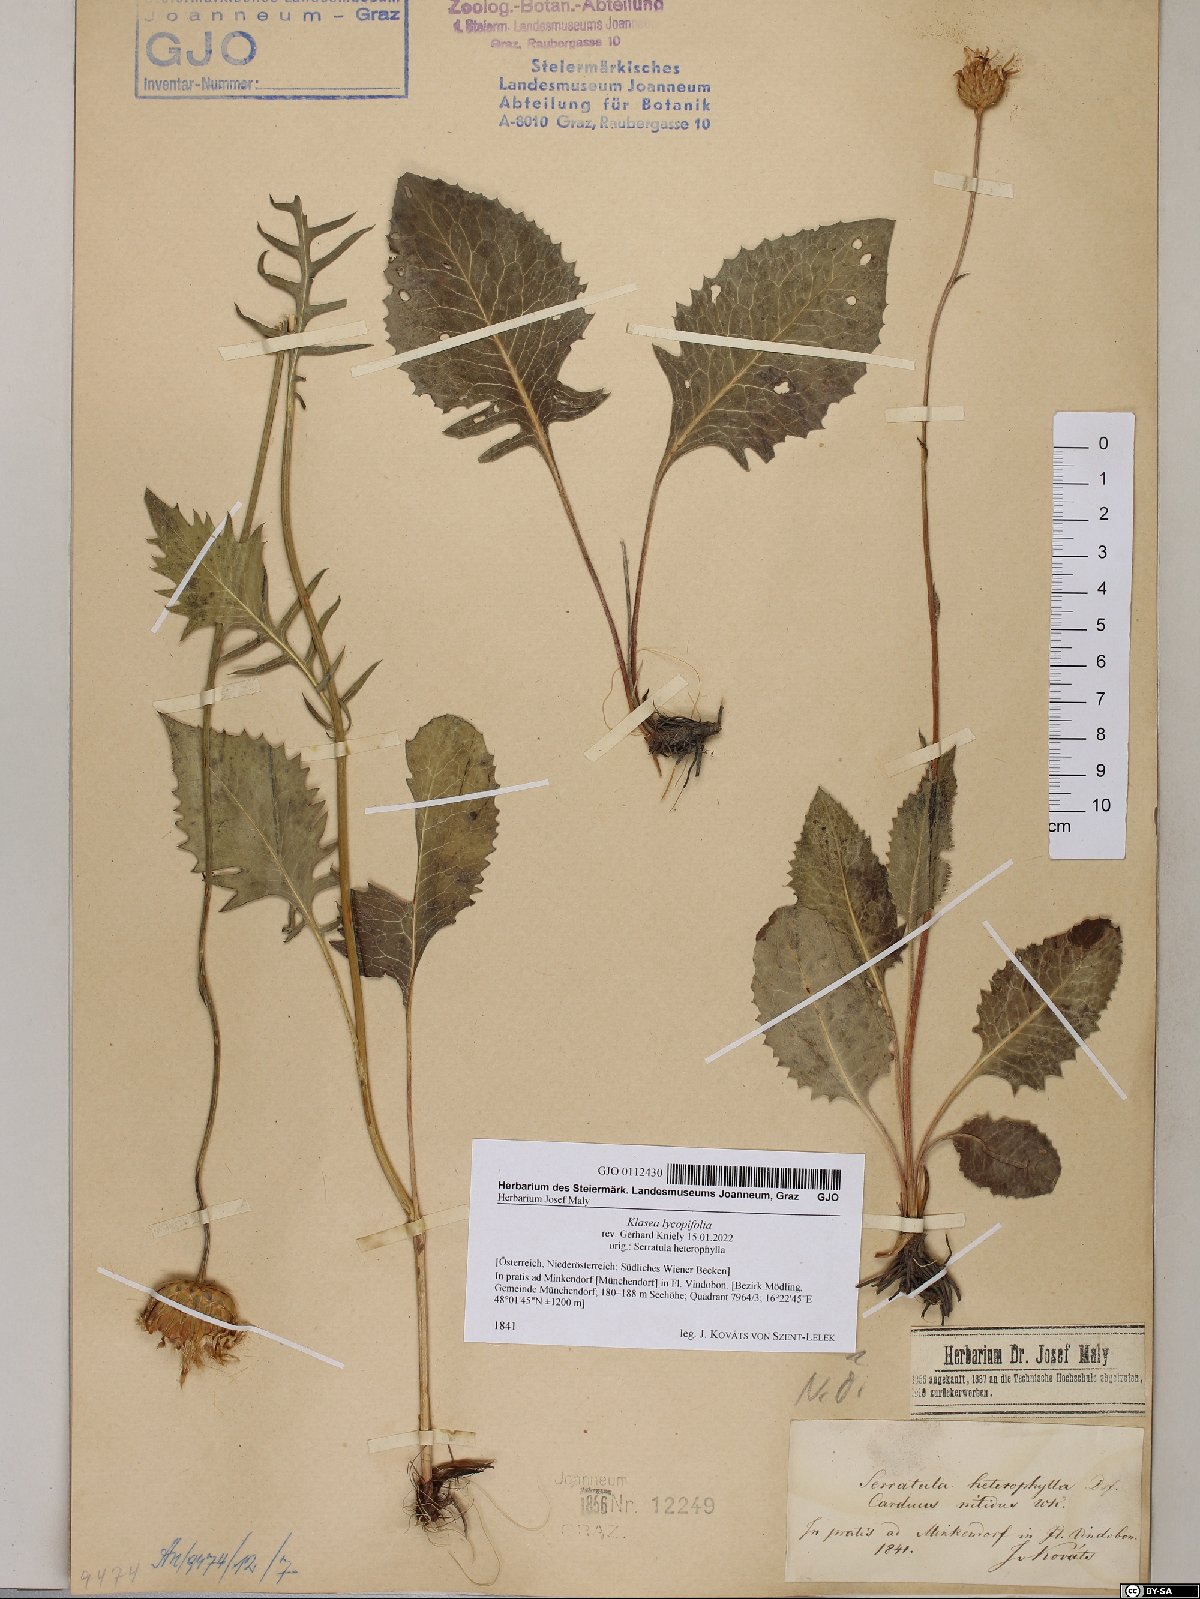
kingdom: Plantae
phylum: Tracheophyta
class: Magnoliopsida
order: Asterales
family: Asteraceae
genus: Klasea
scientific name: Klasea lycopifolia
